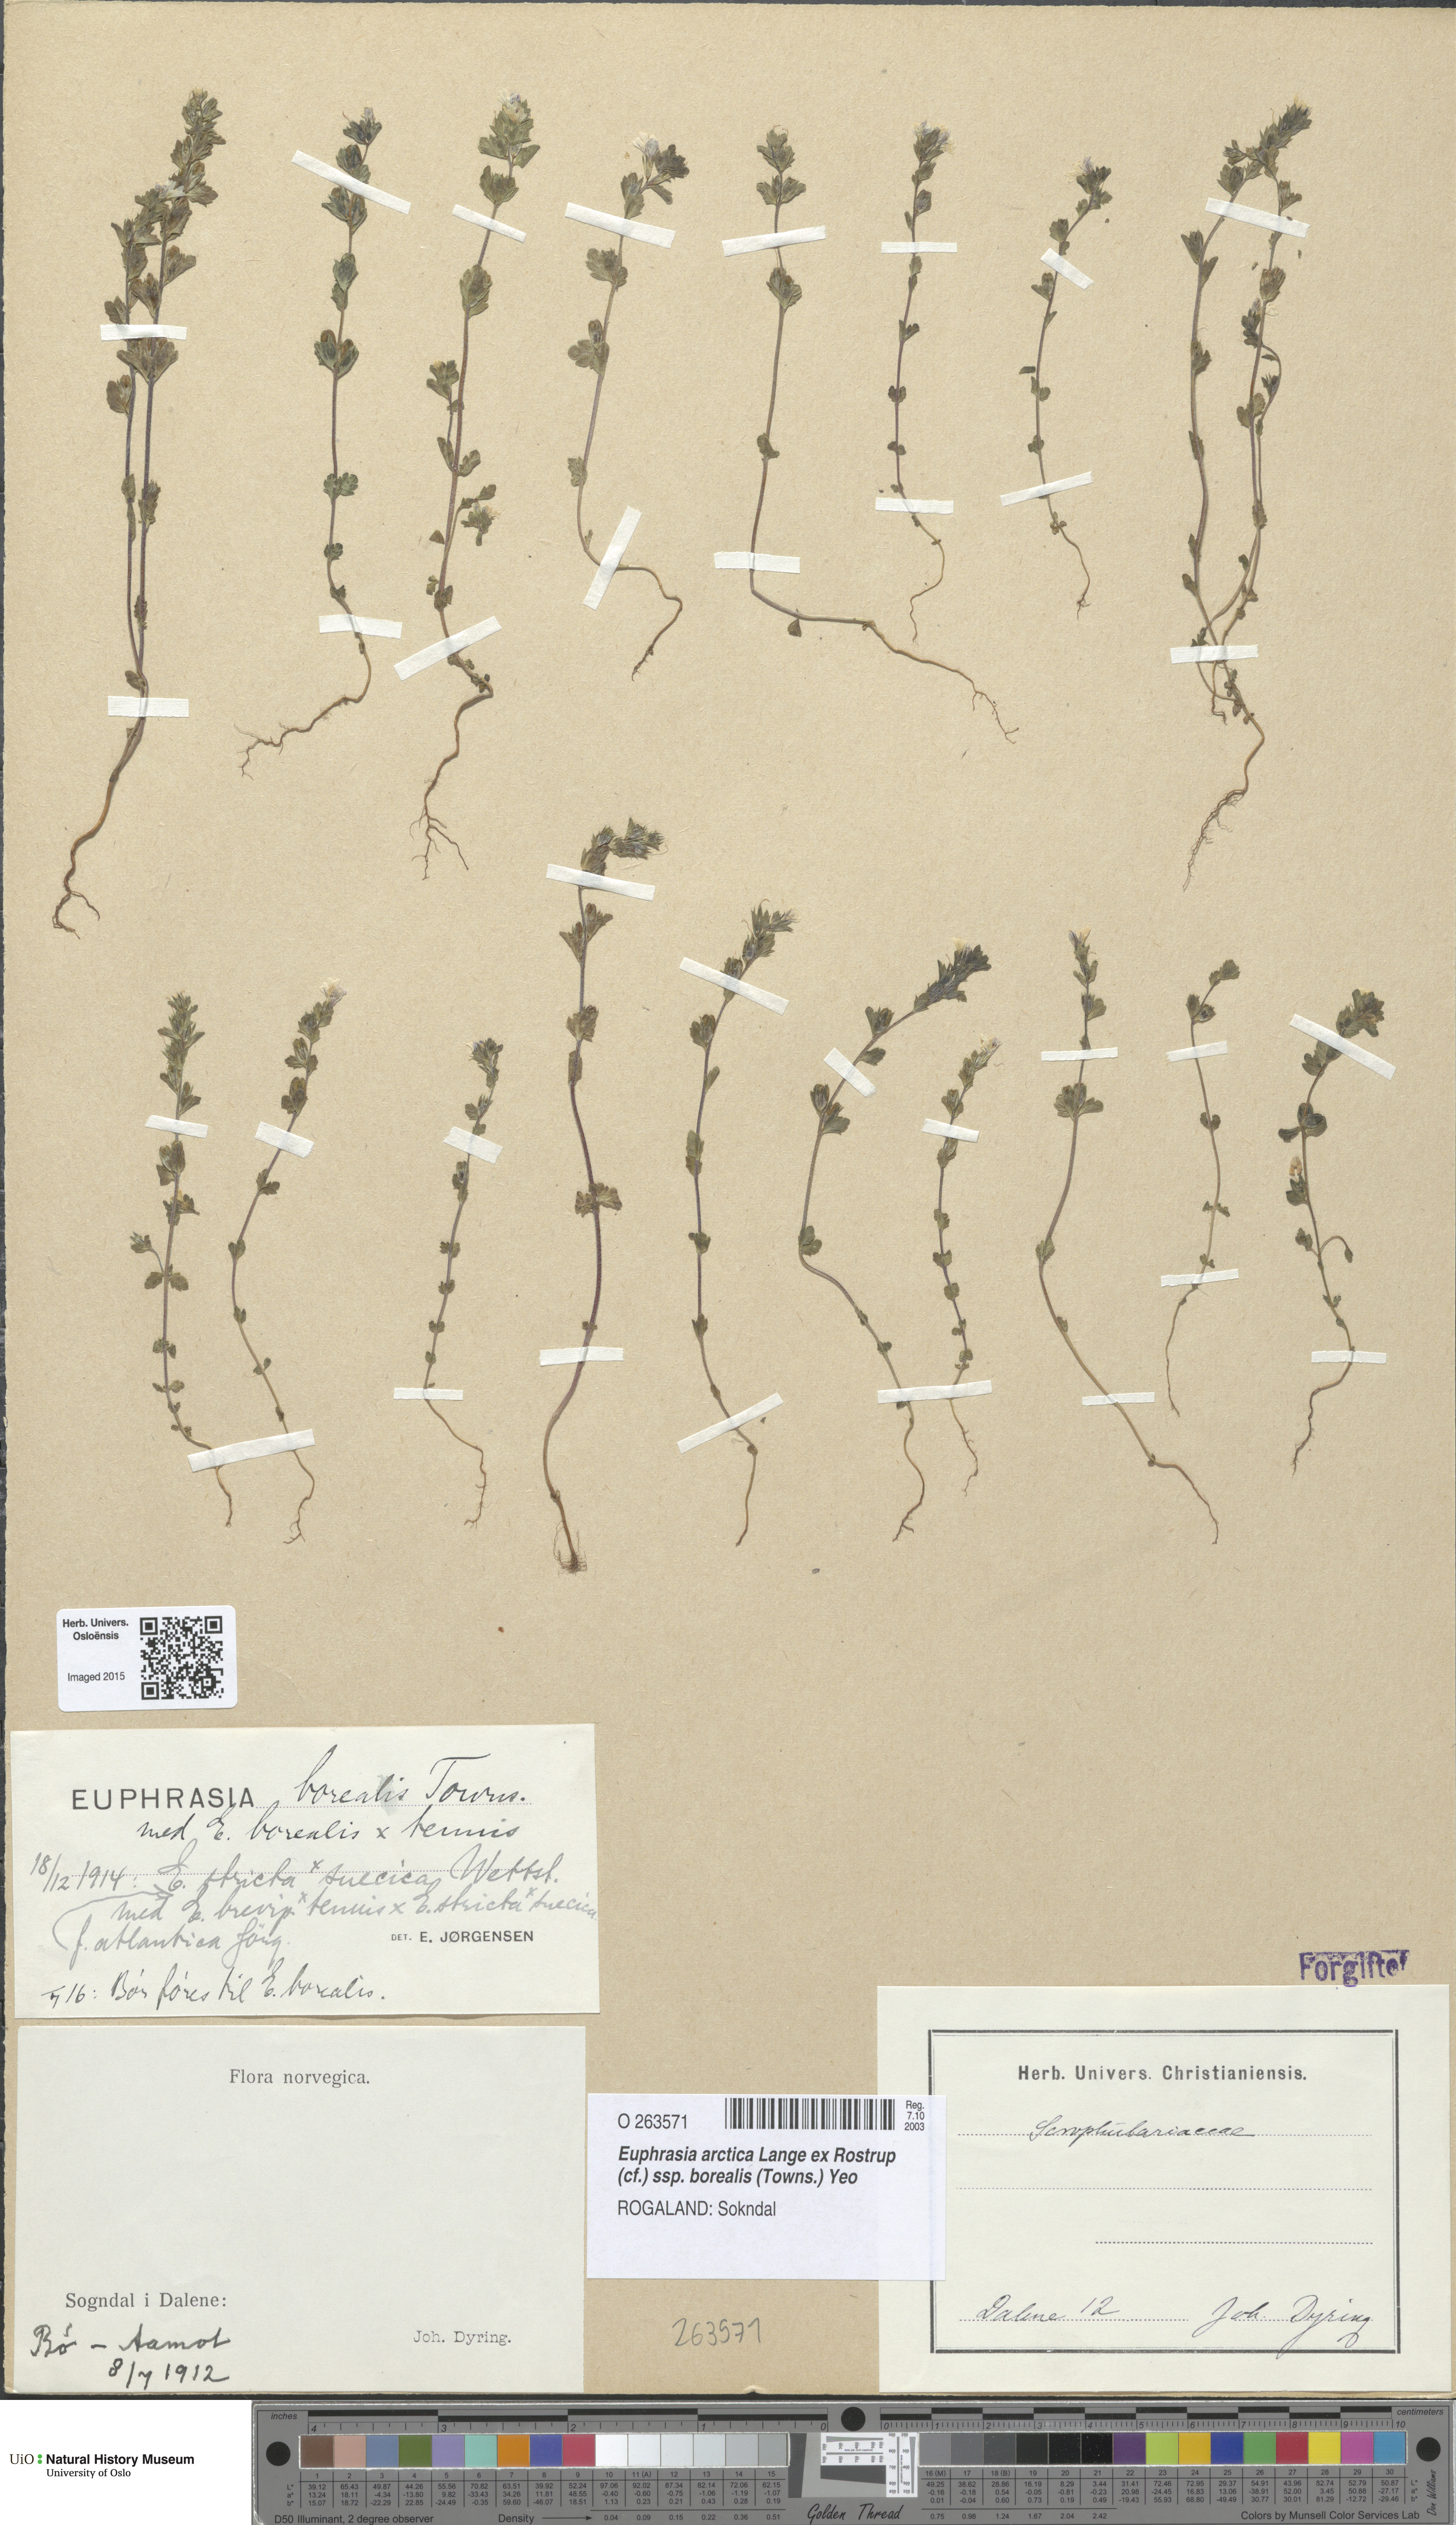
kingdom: Plantae
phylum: Tracheophyta
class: Magnoliopsida
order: Lamiales
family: Orobanchaceae
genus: Euphrasia
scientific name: Euphrasia arctica
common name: An eyebright
